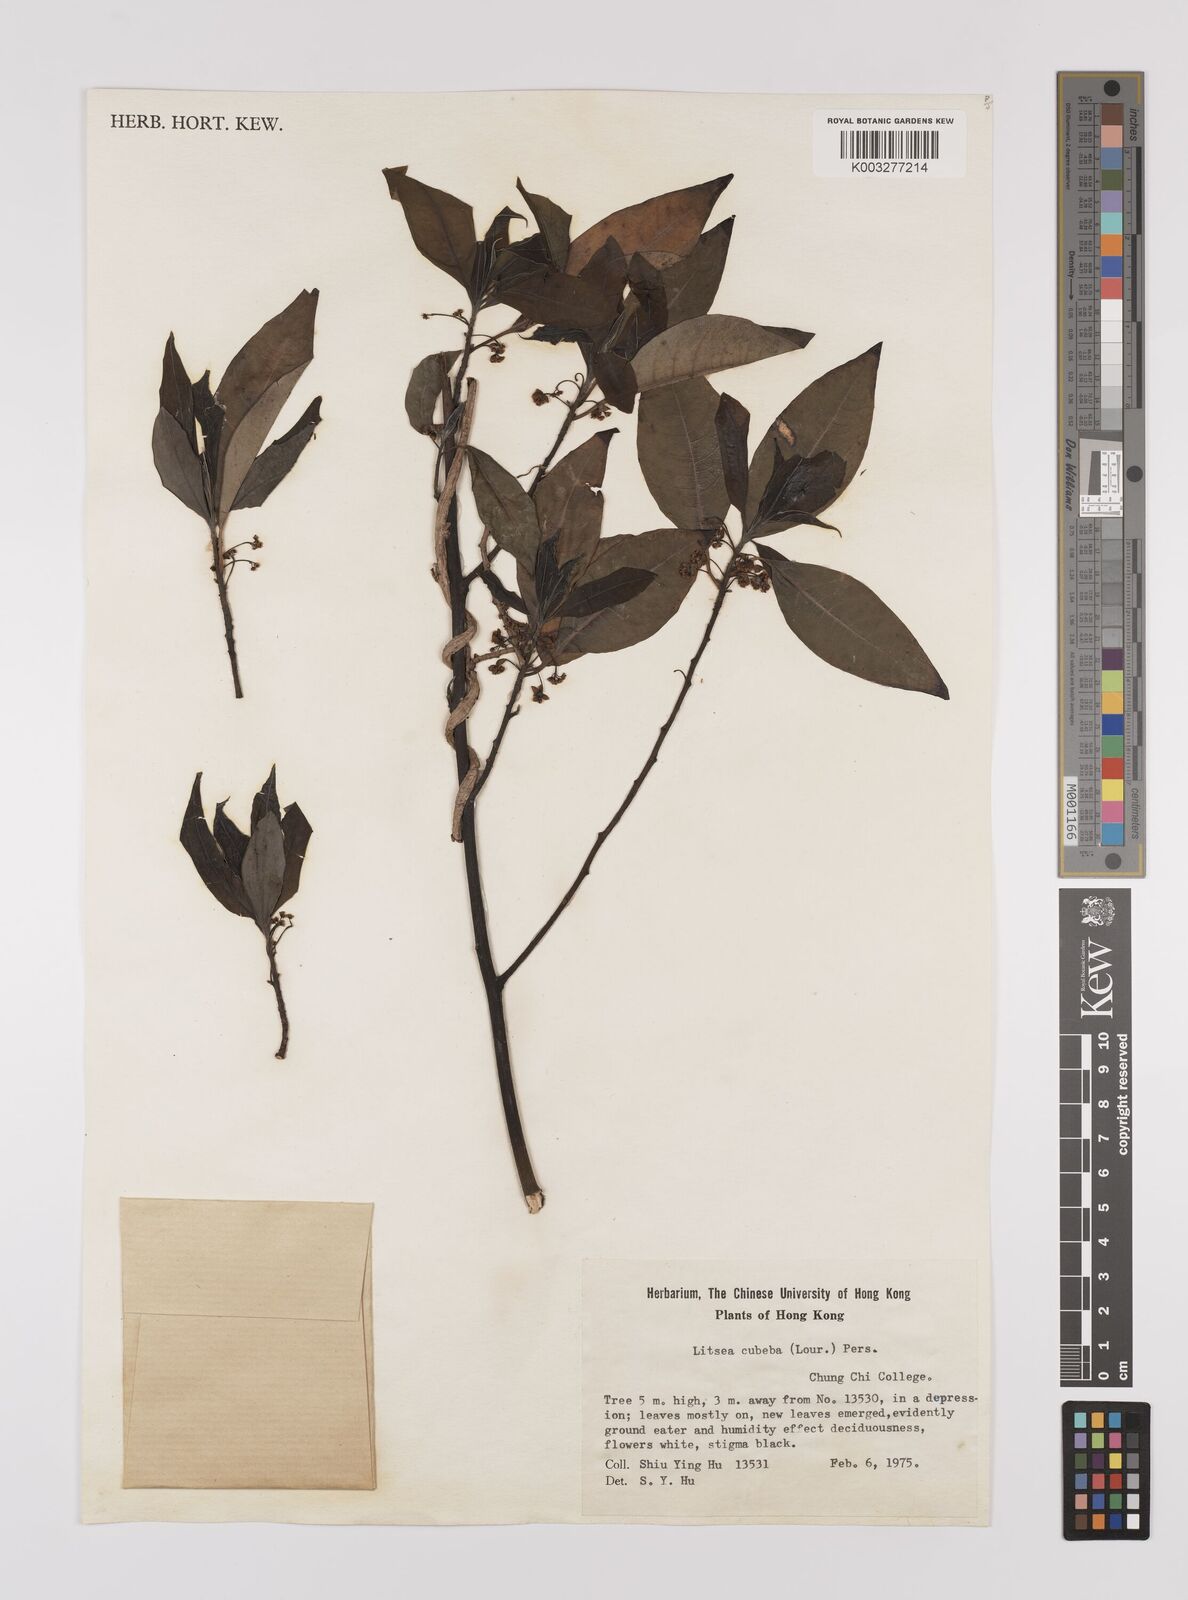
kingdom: Plantae
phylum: Tracheophyta
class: Magnoliopsida
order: Laurales
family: Lauraceae
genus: Litsea
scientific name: Litsea cubeba
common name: Mountain-pepper
